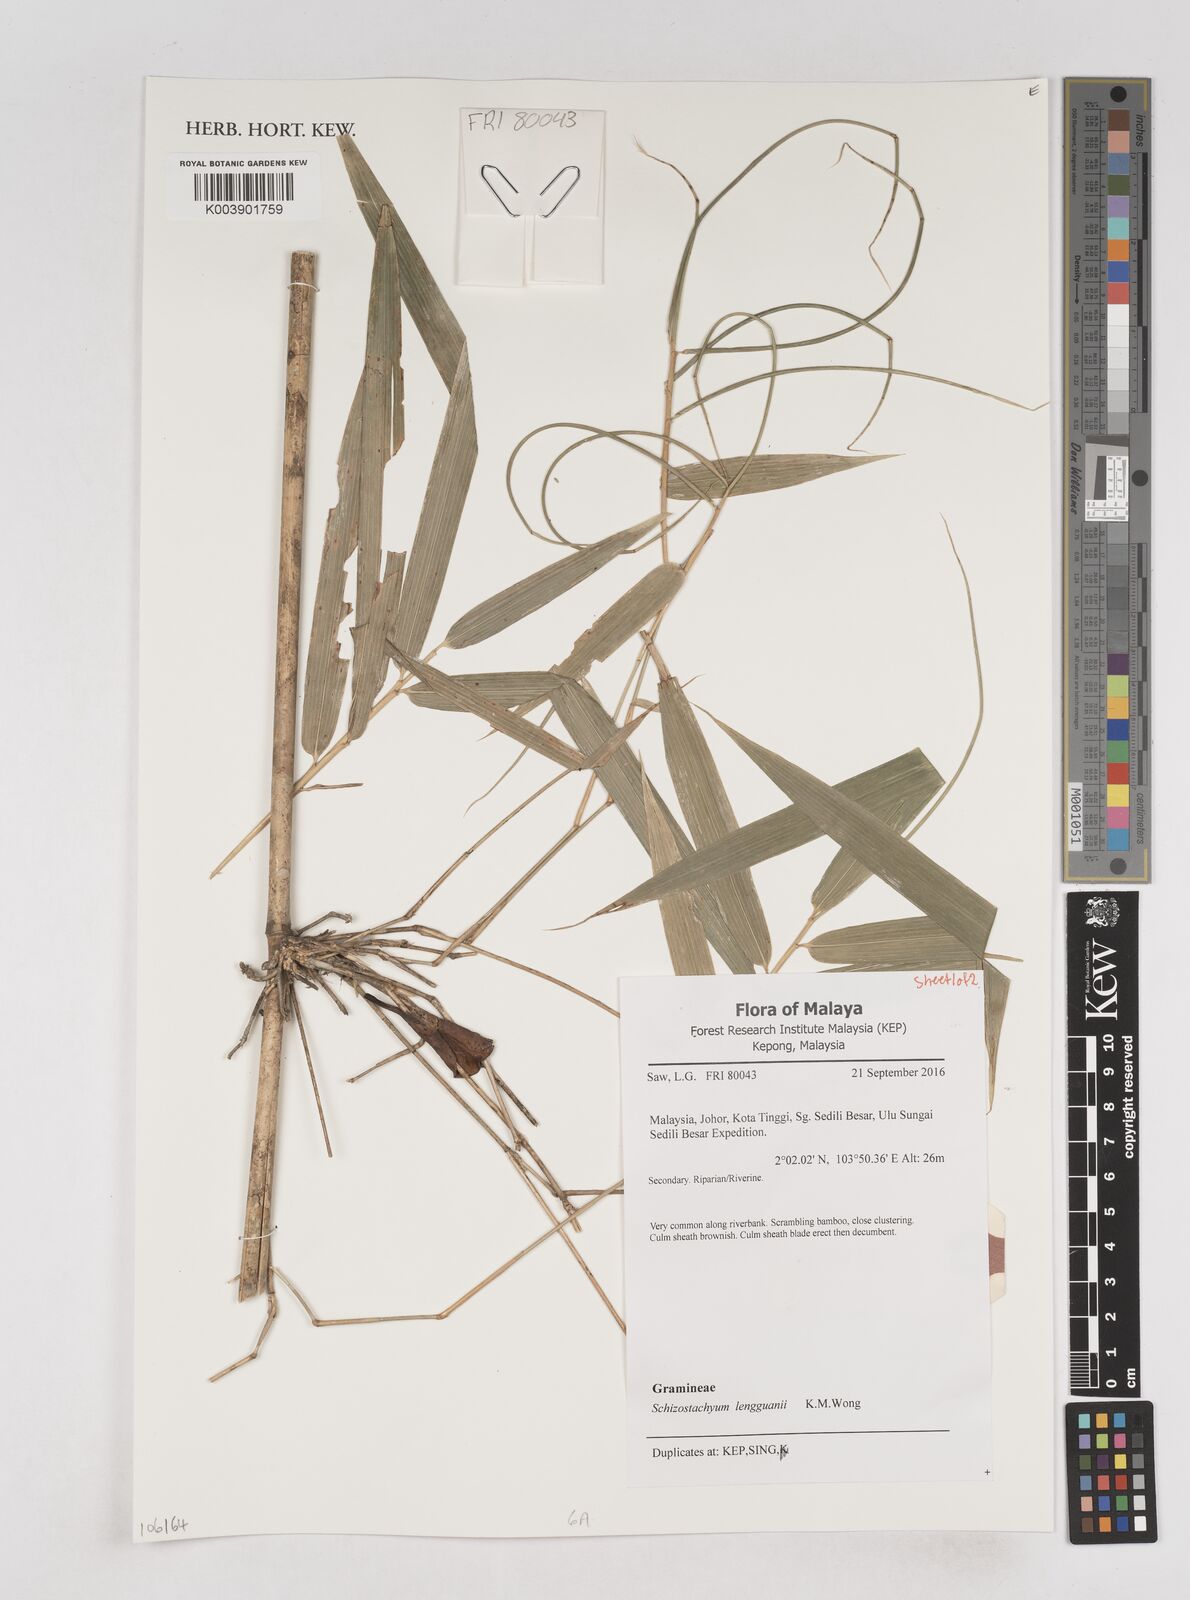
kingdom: Plantae
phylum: Tracheophyta
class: Liliopsida
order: Poales
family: Poaceae
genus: Schizostachyum
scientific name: Schizostachyum lengguanii
